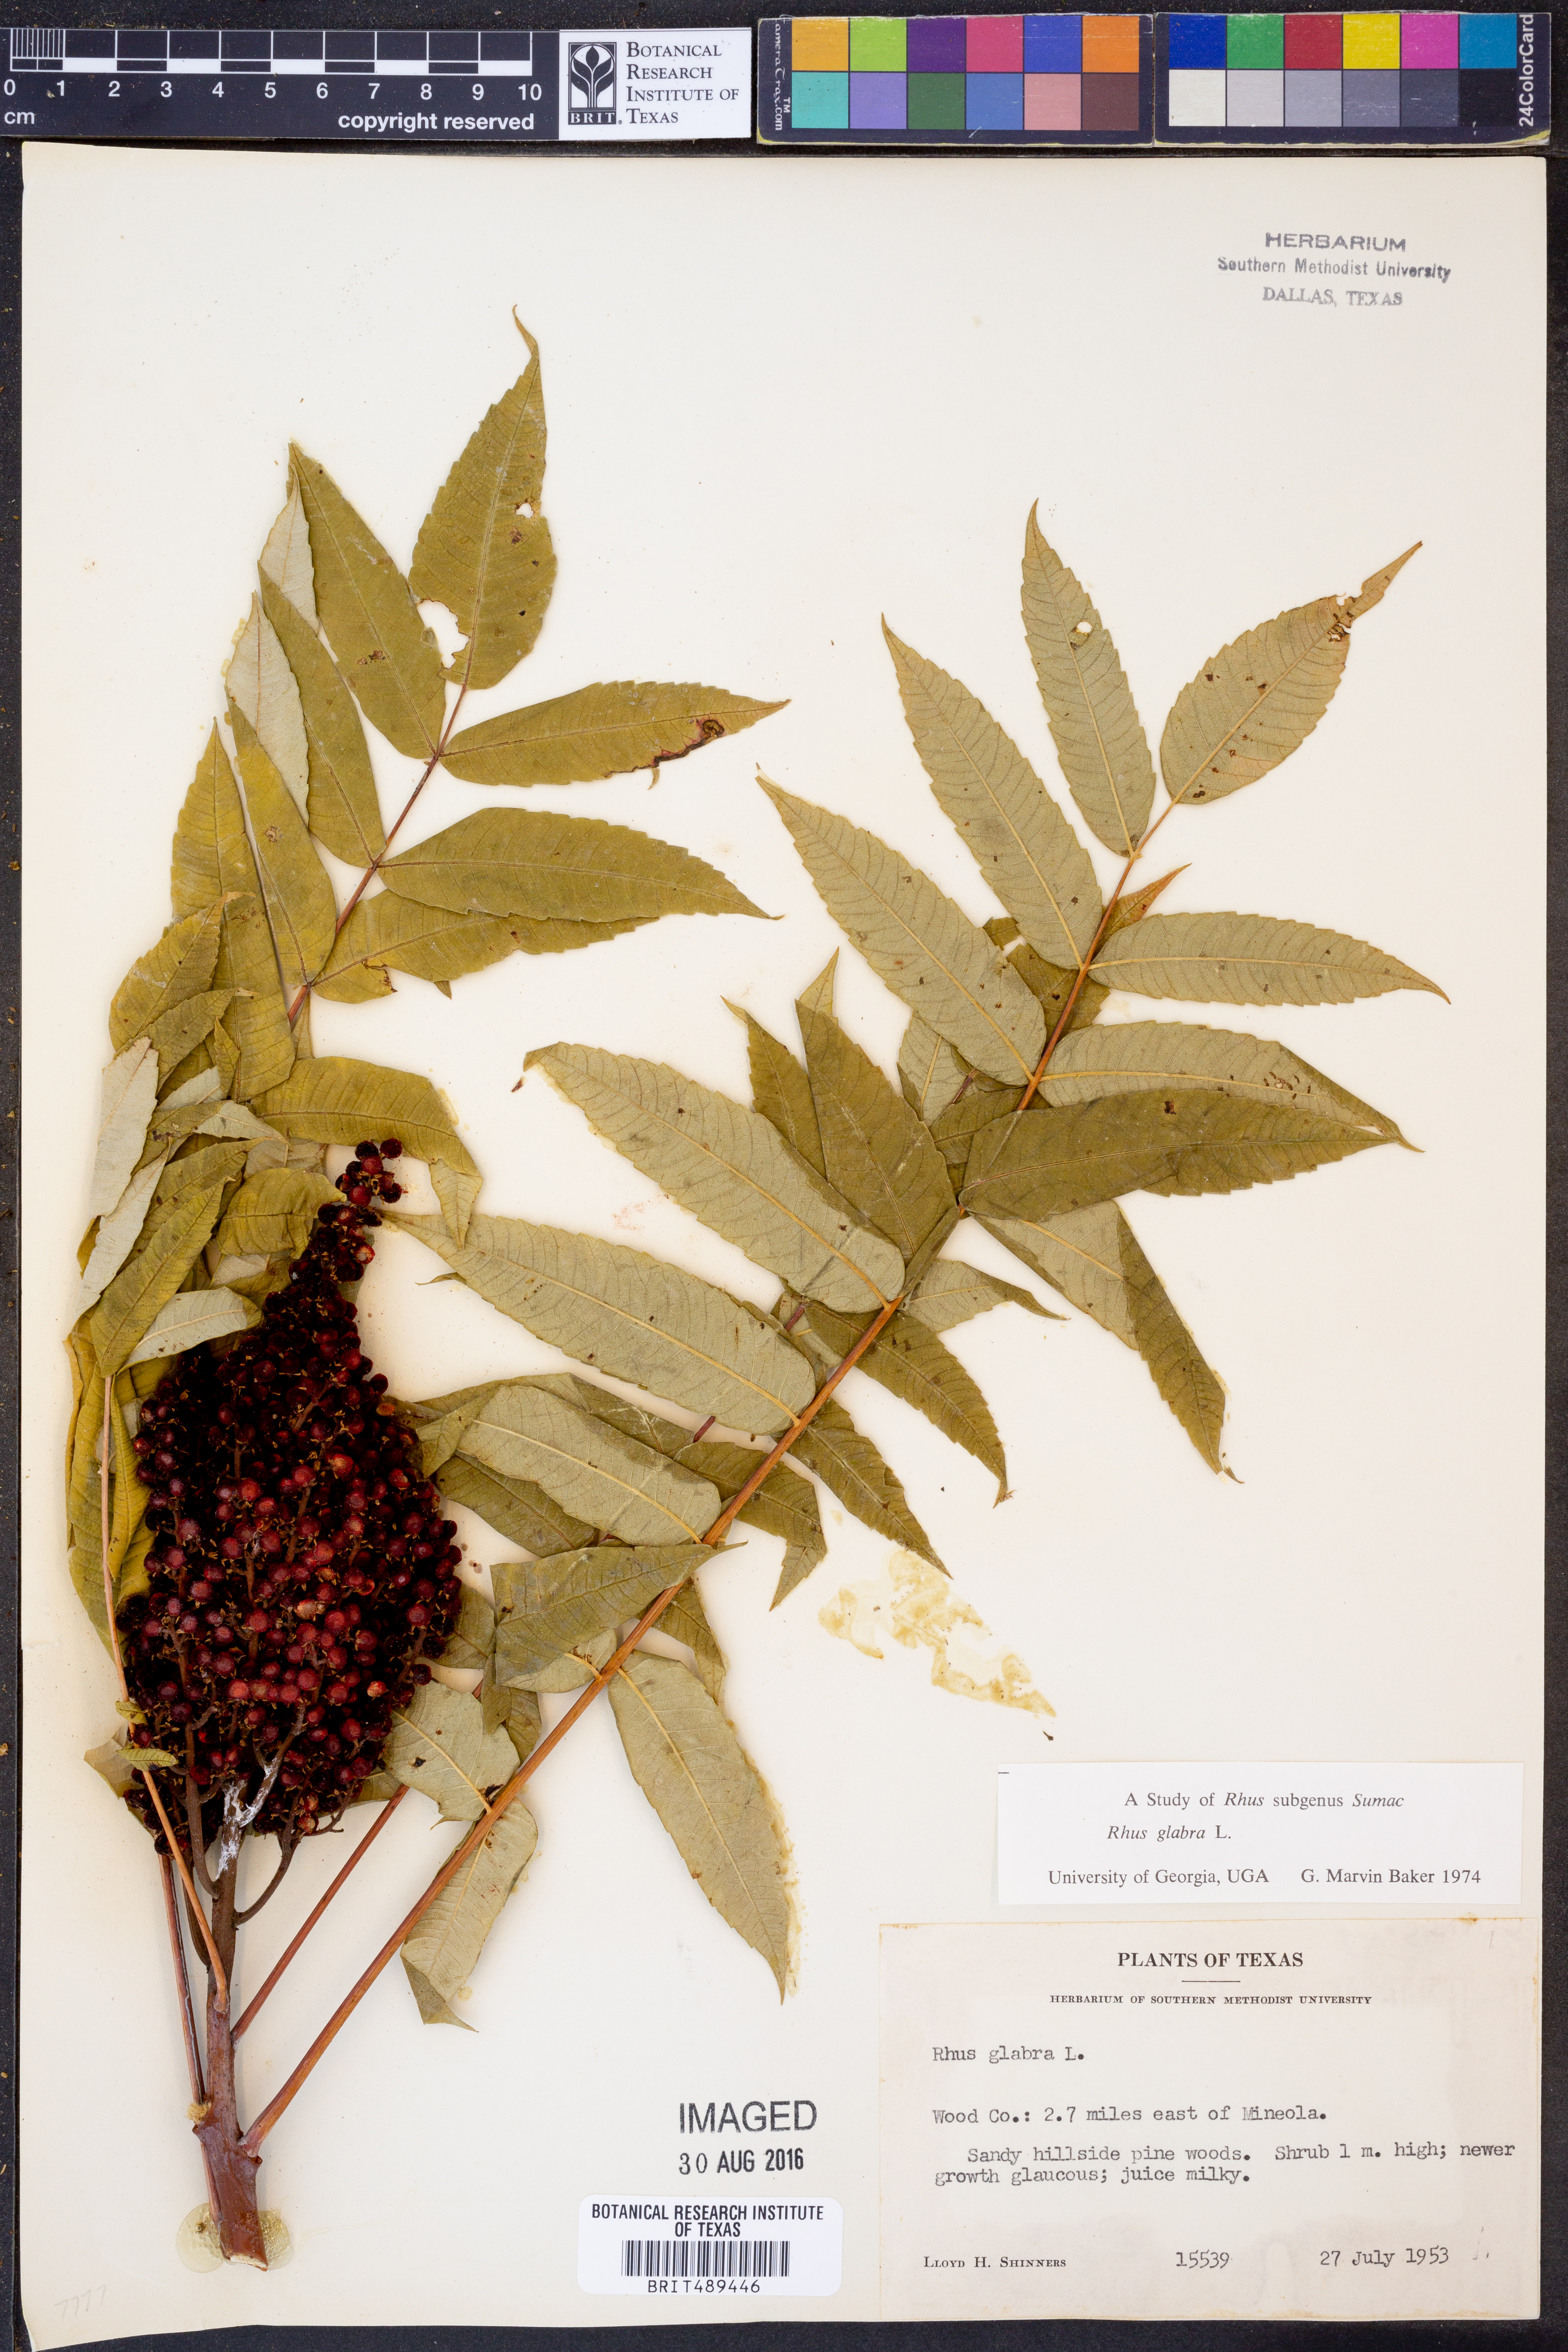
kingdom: Plantae
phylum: Tracheophyta
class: Magnoliopsida
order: Sapindales
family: Anacardiaceae
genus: Rhus
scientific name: Rhus glabra
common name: Scarlet sumac
